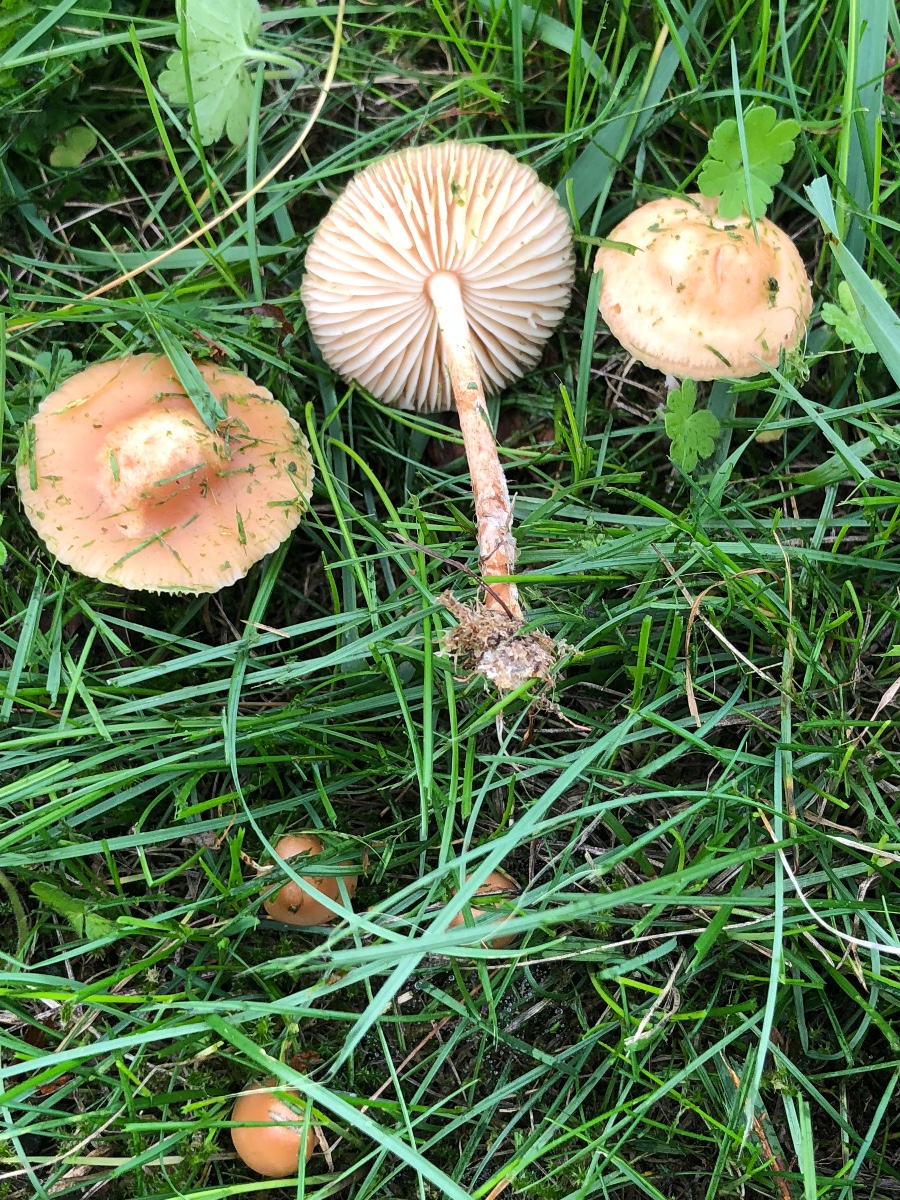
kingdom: Fungi
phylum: Basidiomycota
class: Agaricomycetes
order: Agaricales
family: Marasmiaceae
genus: Marasmius
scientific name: Marasmius oreades
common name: elledans-bruskhat
